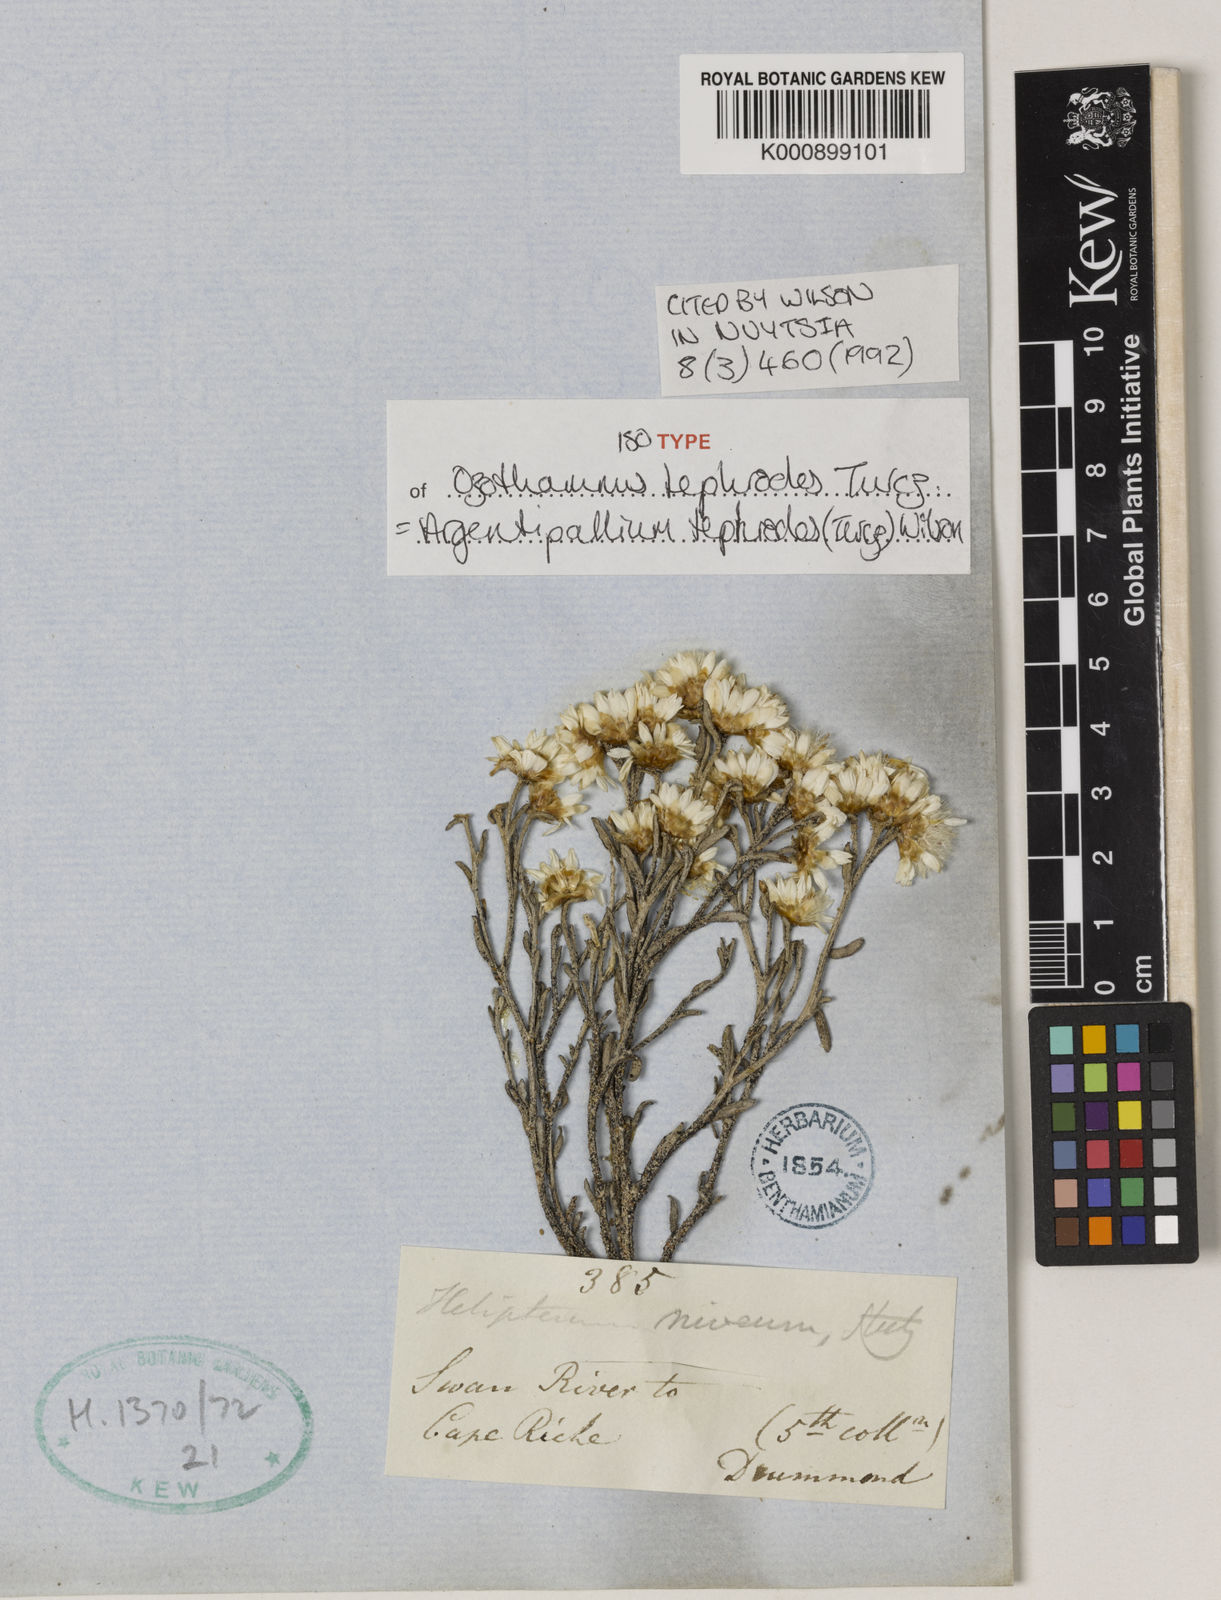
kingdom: Plantae
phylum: Tracheophyta
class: Magnoliopsida
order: Asterales
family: Asteraceae
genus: Argentipallium
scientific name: Argentipallium tephrodes
